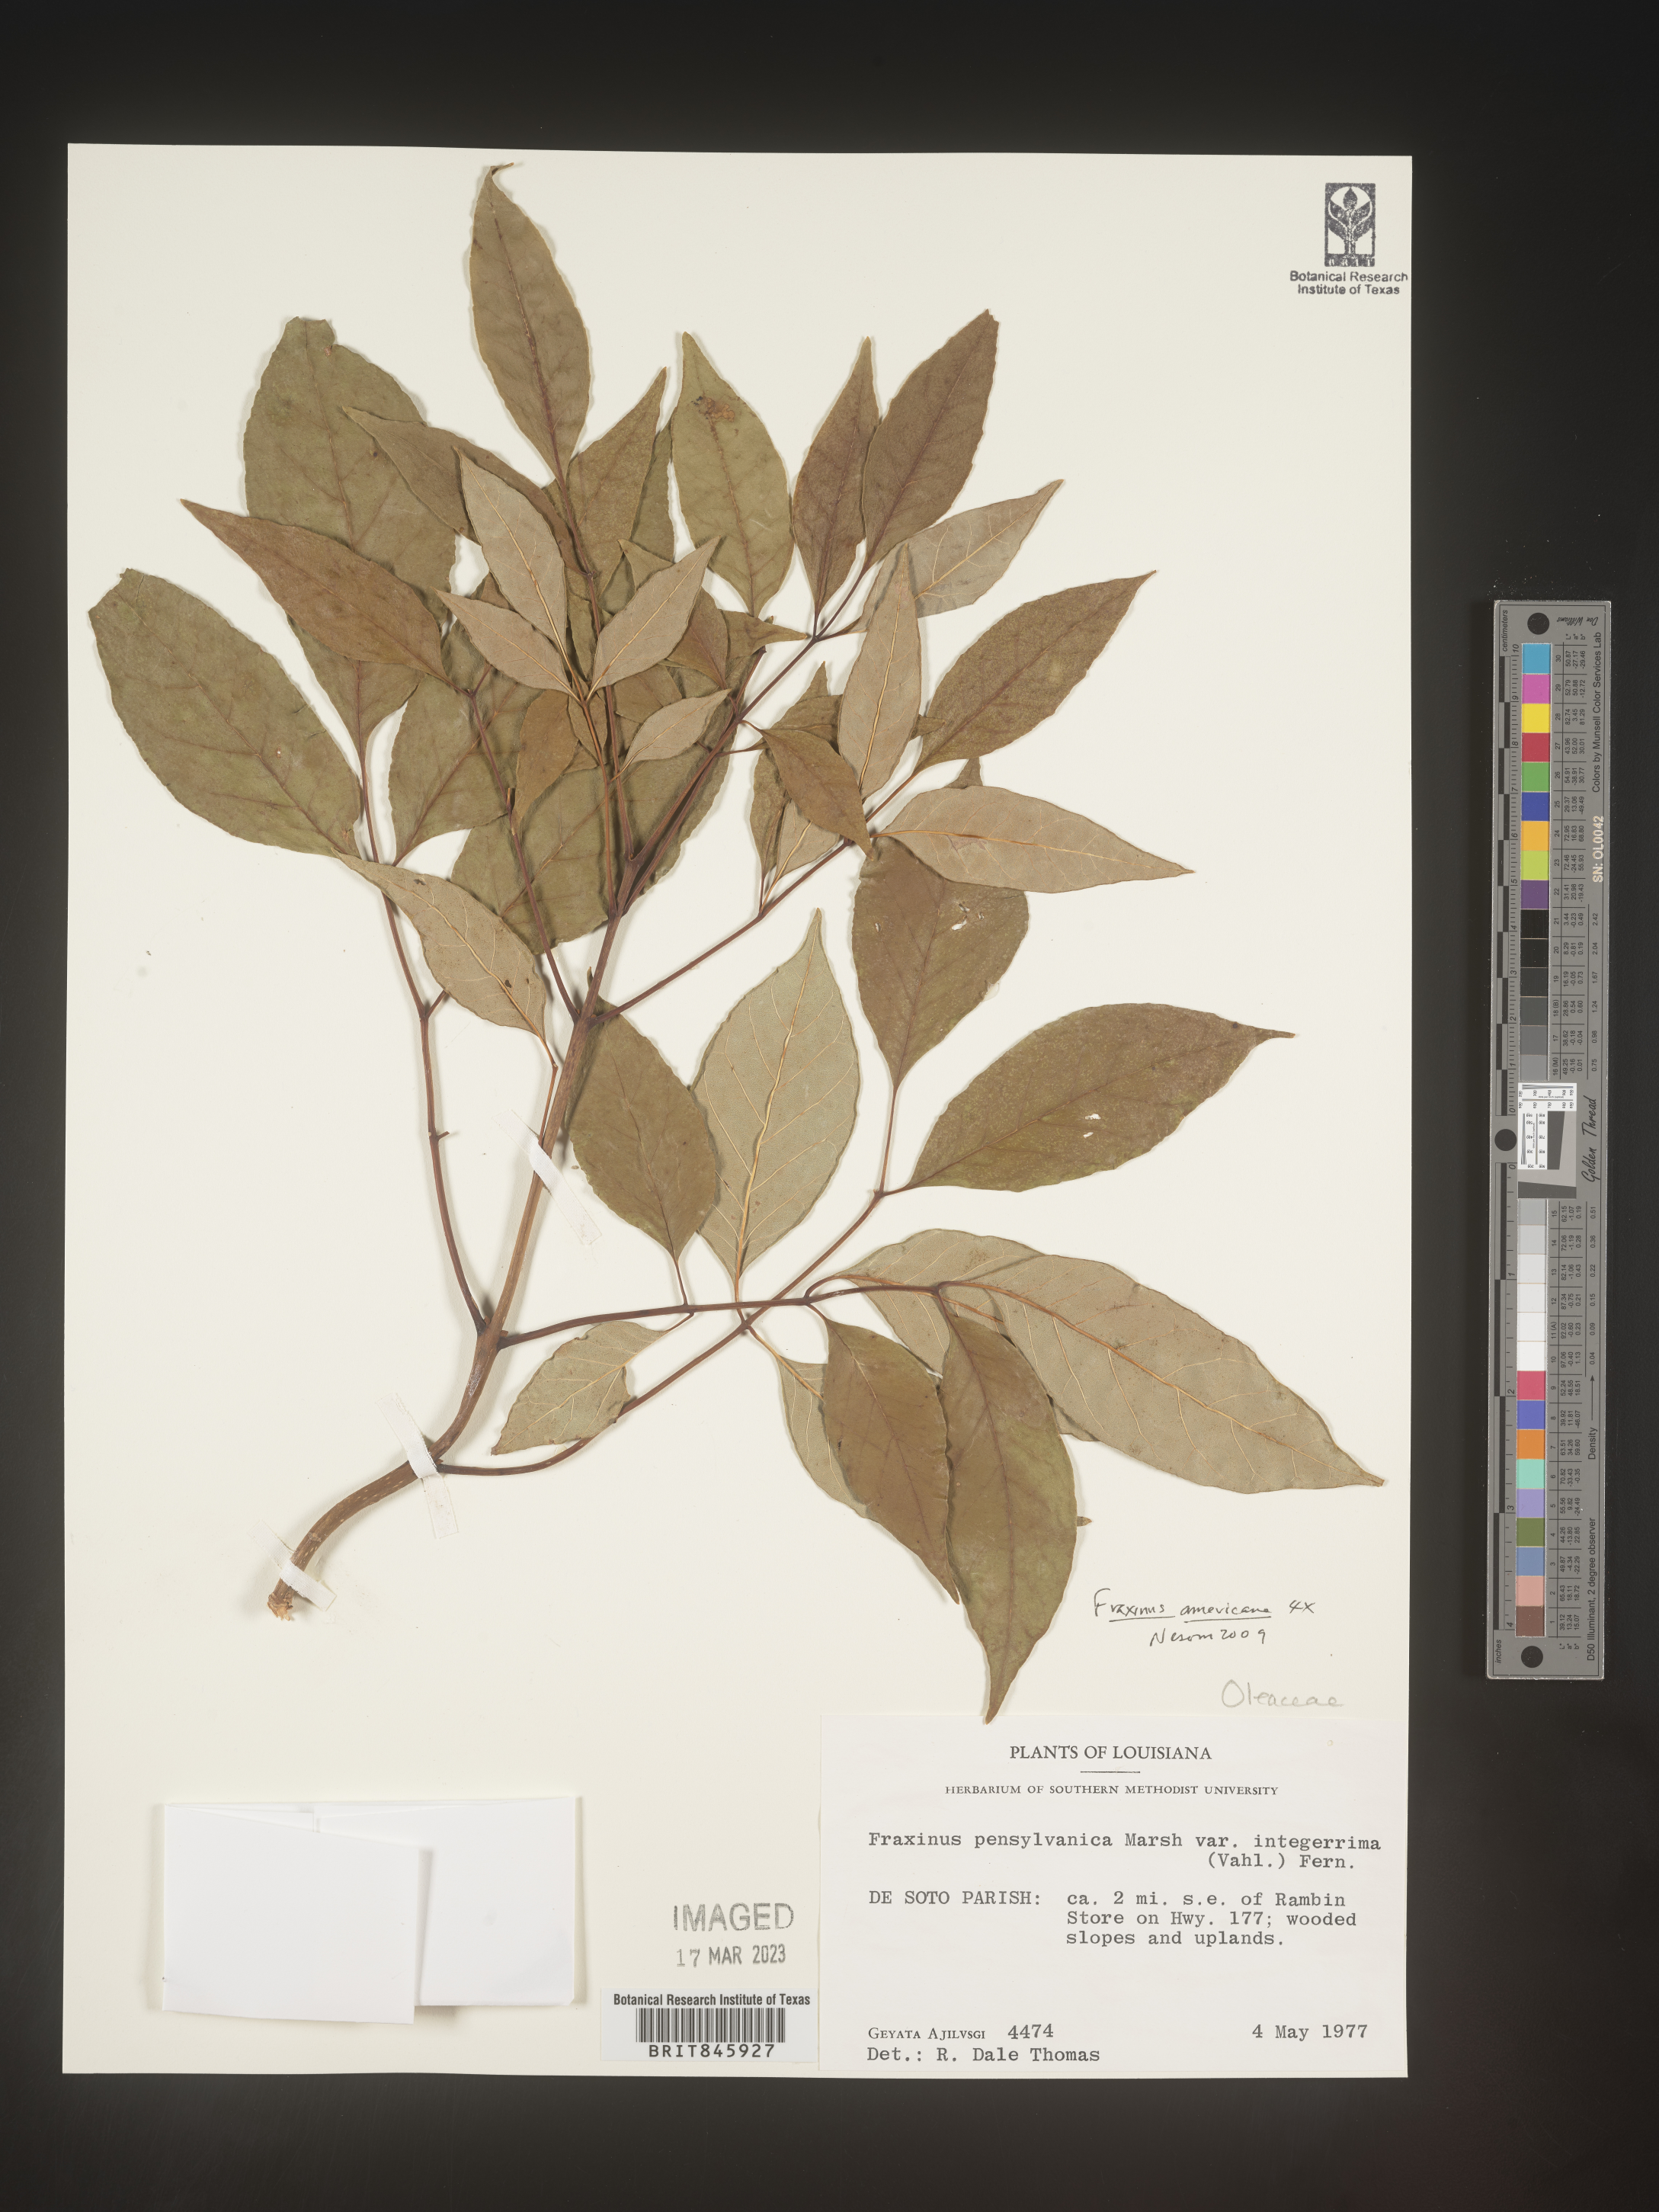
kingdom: Plantae
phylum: Tracheophyta
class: Magnoliopsida
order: Lamiales
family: Oleaceae
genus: Fraxinus
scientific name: Fraxinus americana
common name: White ash
